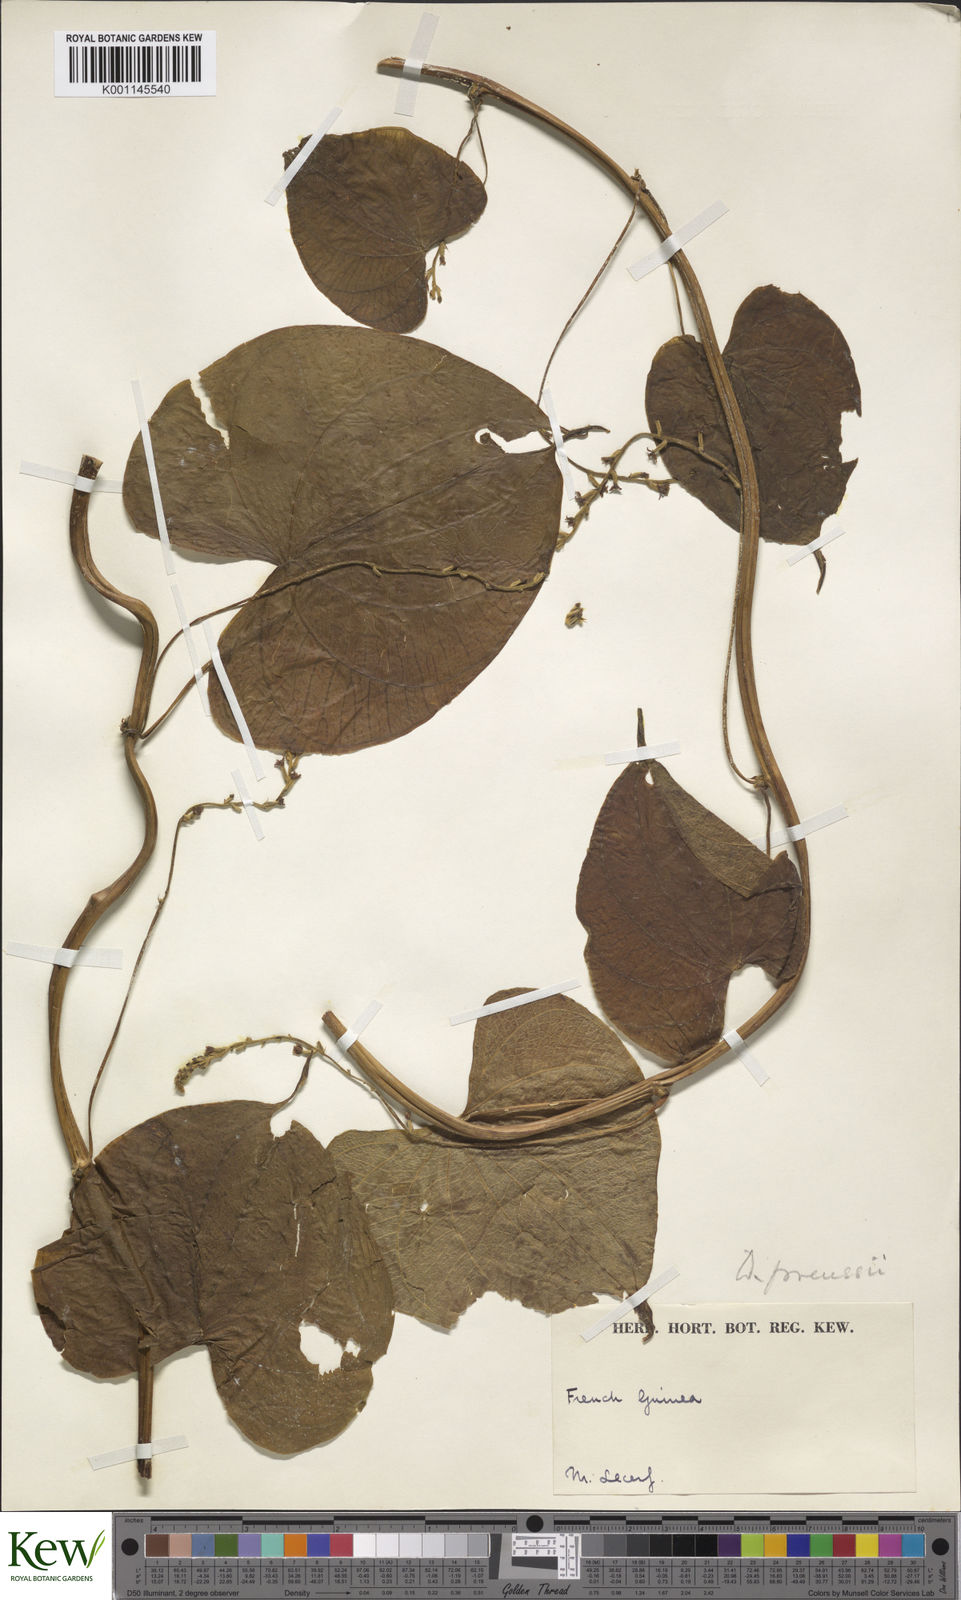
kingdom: Plantae
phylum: Tracheophyta
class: Liliopsida
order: Dioscoreales
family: Dioscoreaceae
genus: Dioscorea
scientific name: Dioscorea preussii
